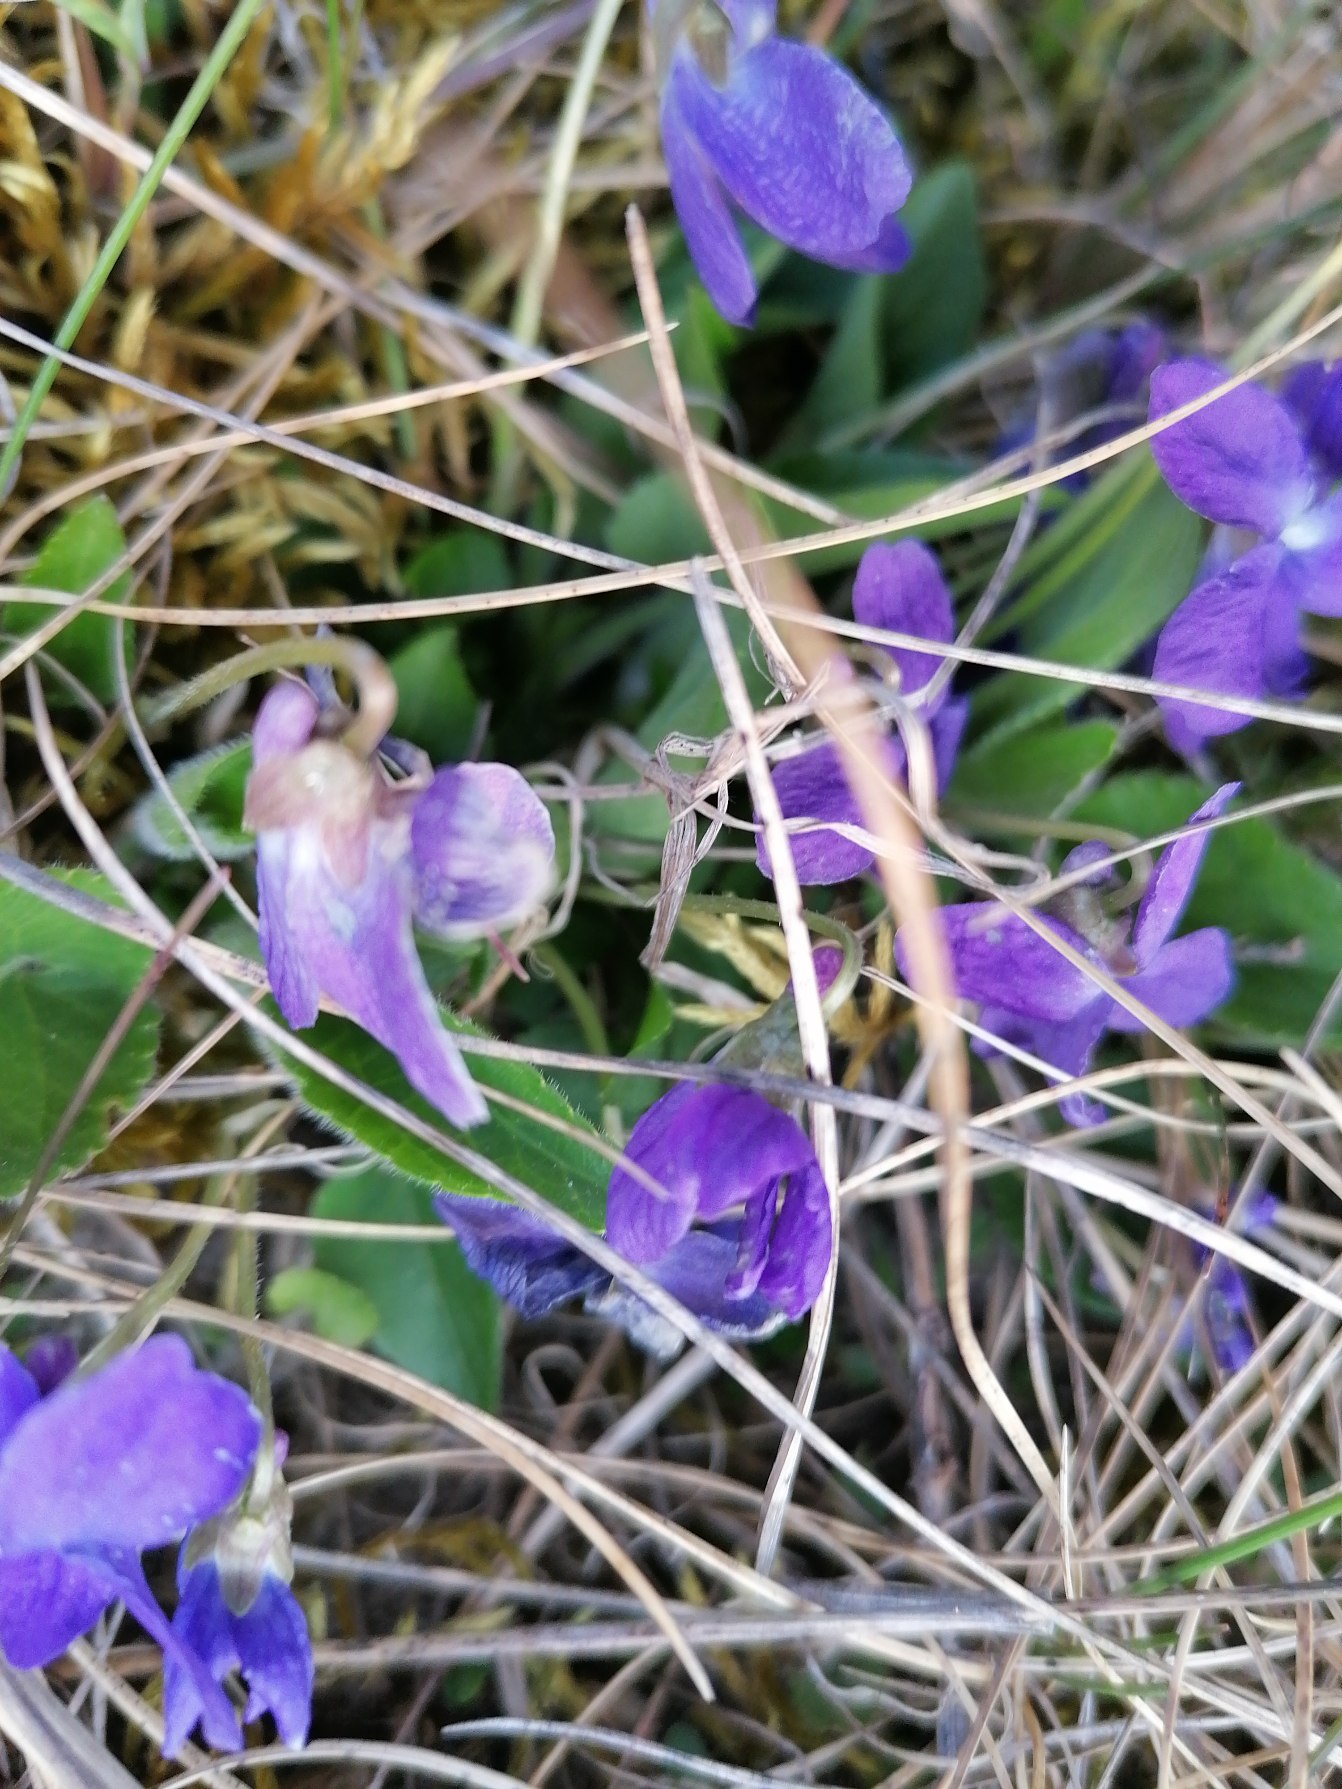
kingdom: Plantae
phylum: Tracheophyta
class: Magnoliopsida
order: Malpighiales
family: Violaceae
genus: Viola
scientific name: Viola hirta
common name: Håret viol
